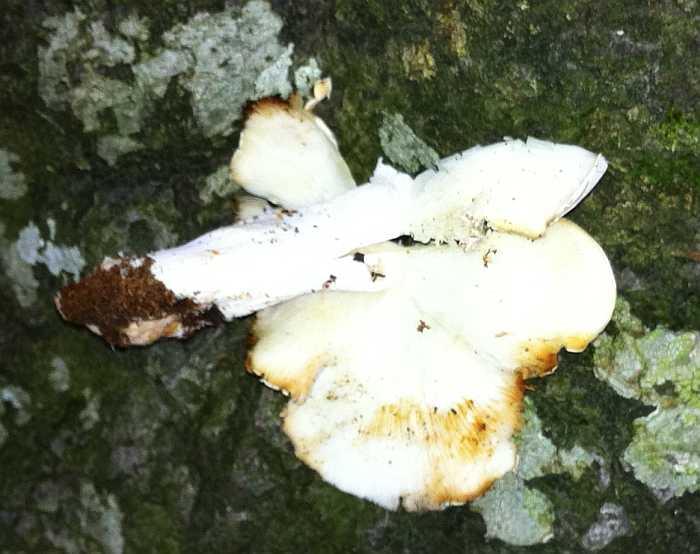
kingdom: Fungi
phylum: Basidiomycota
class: Agaricomycetes
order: Agaricales
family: Lyophyllaceae
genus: Ossicaulis
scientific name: Ossicaulis lignatilis
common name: hvidlig vedtragthat
